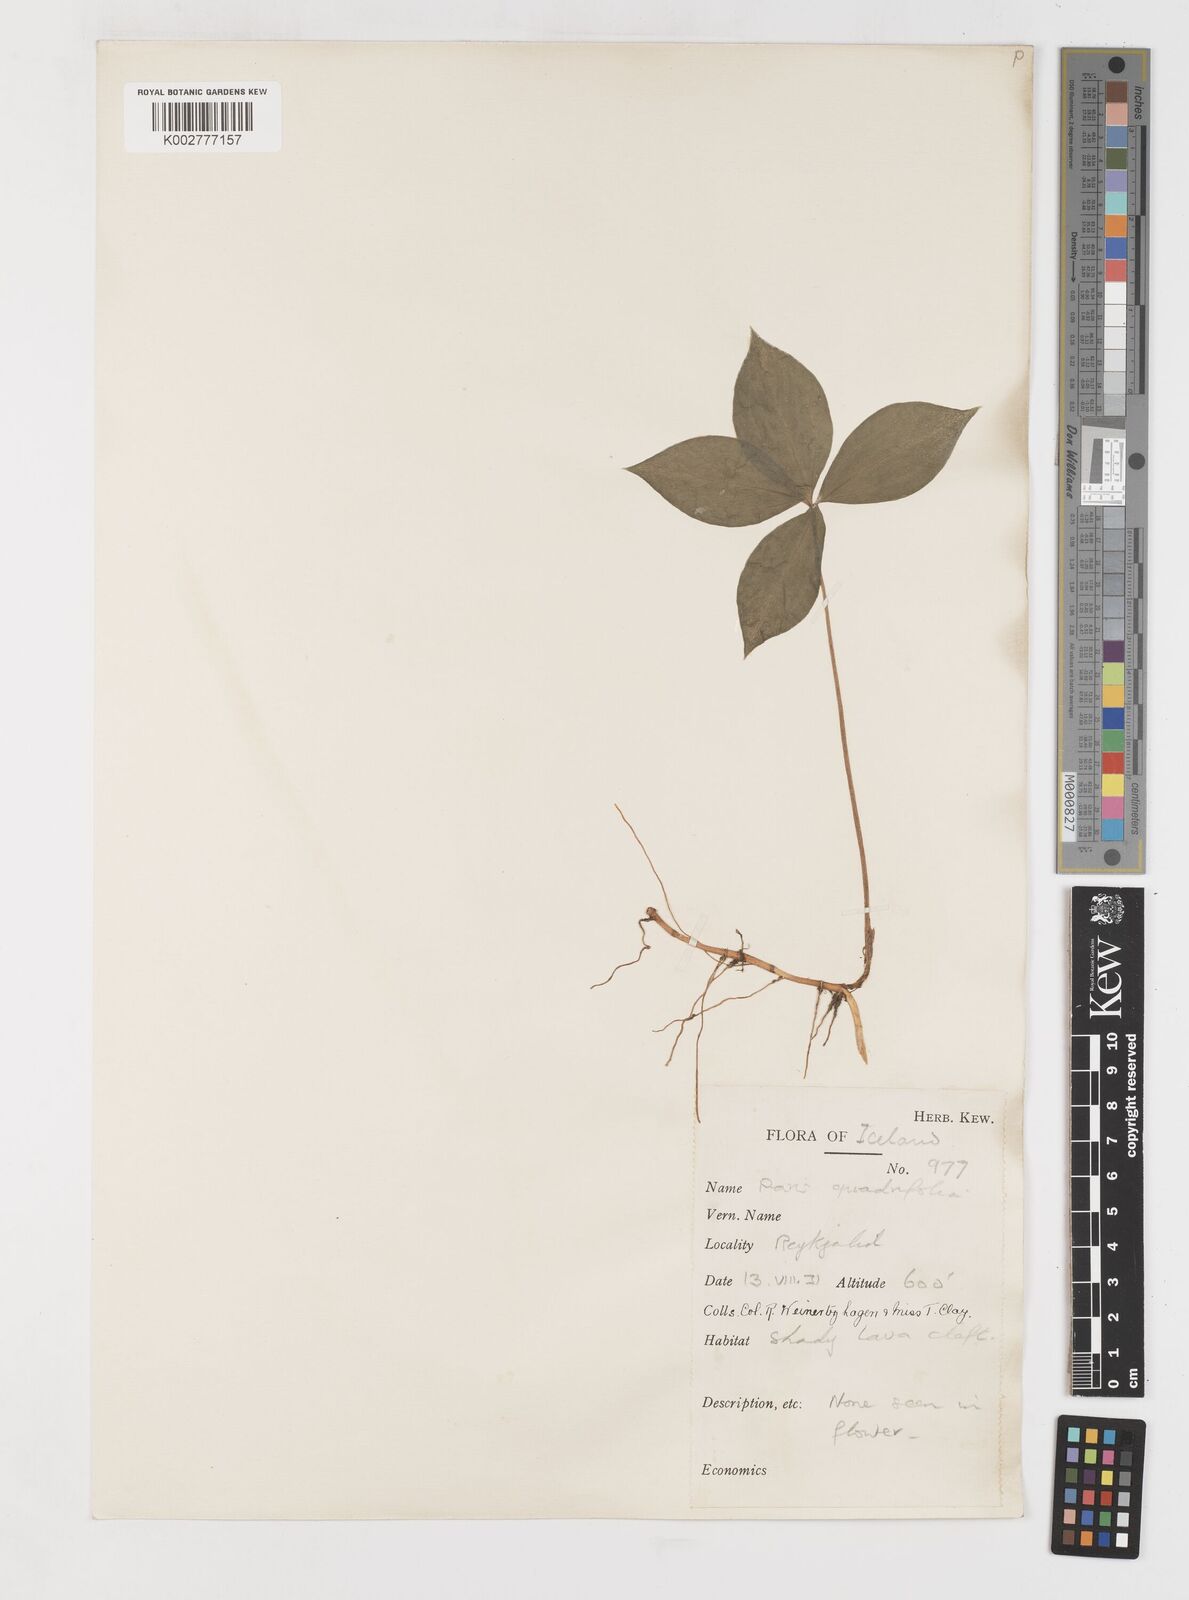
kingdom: Plantae
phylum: Tracheophyta
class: Liliopsida
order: Liliales
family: Melanthiaceae
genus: Paris
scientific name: Paris quadrifolia
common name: Herb-paris
